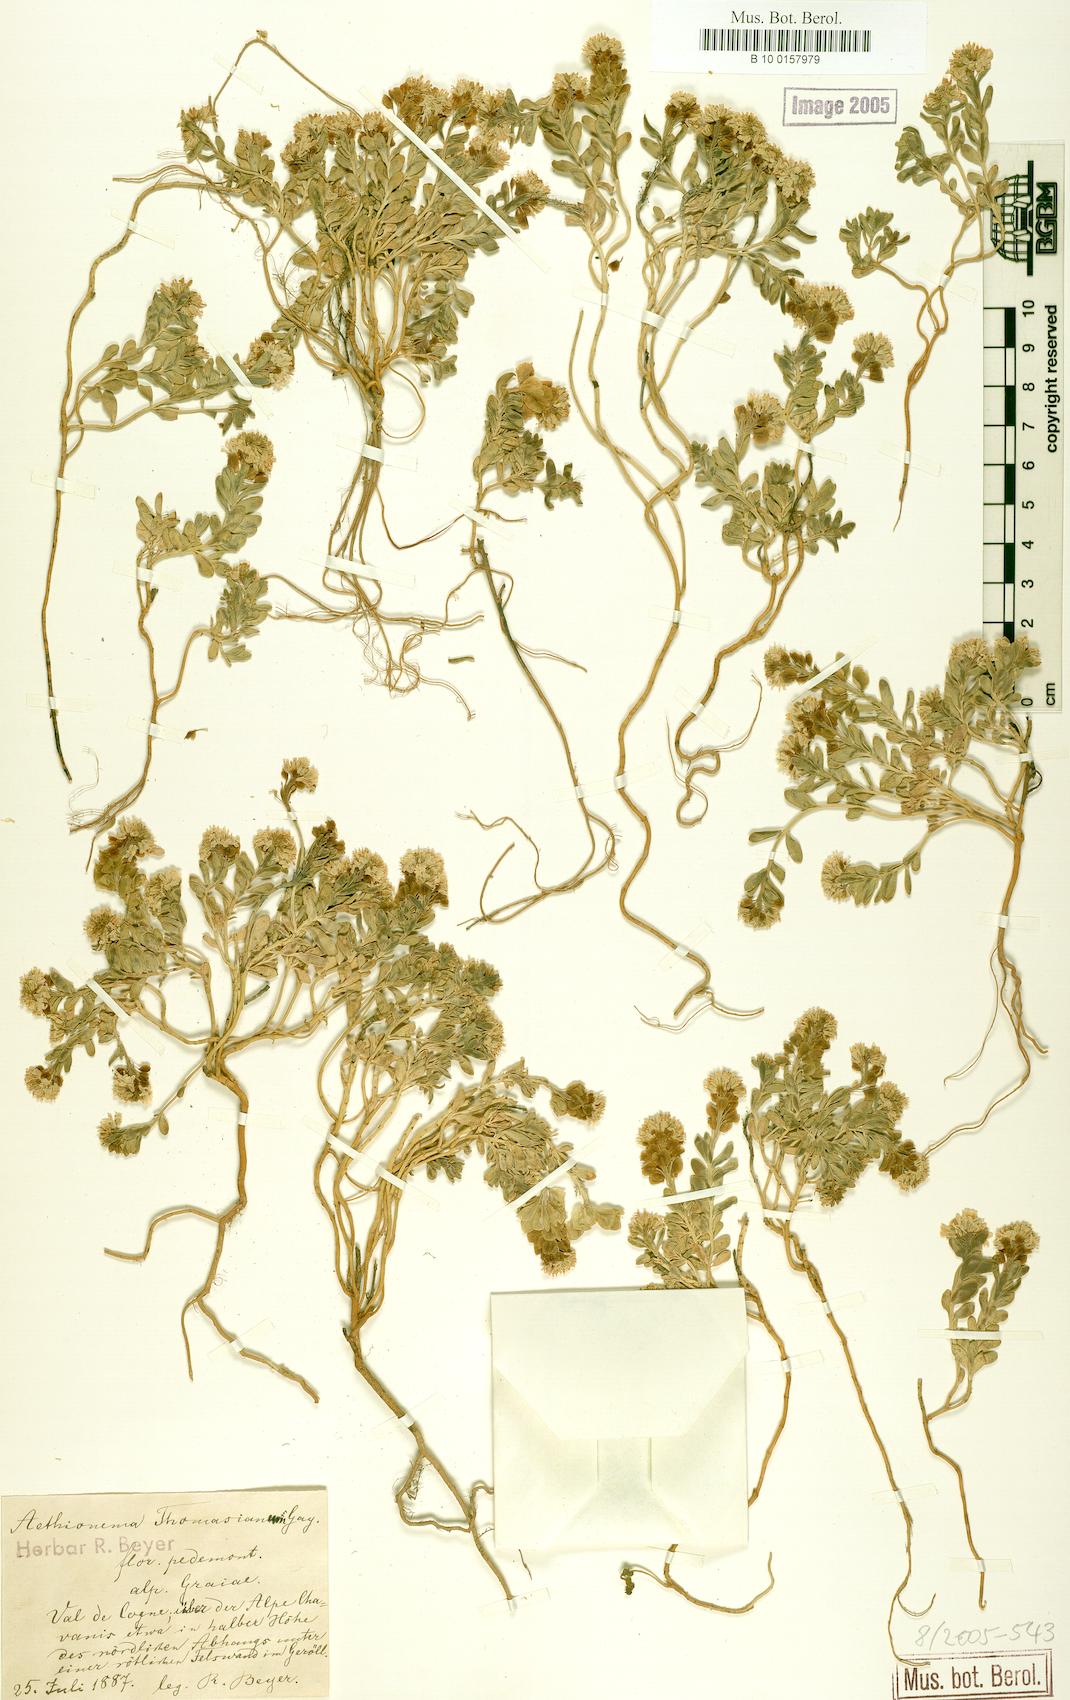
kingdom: Plantae
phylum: Tracheophyta
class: Magnoliopsida
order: Brassicales
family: Brassicaceae
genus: Aethionema
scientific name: Aethionema thomasianum
